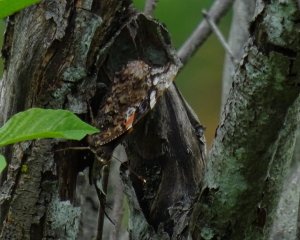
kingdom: Animalia
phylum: Arthropoda
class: Insecta
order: Lepidoptera
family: Nymphalidae
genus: Vanessa
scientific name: Vanessa atalanta
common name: Red Admiral
